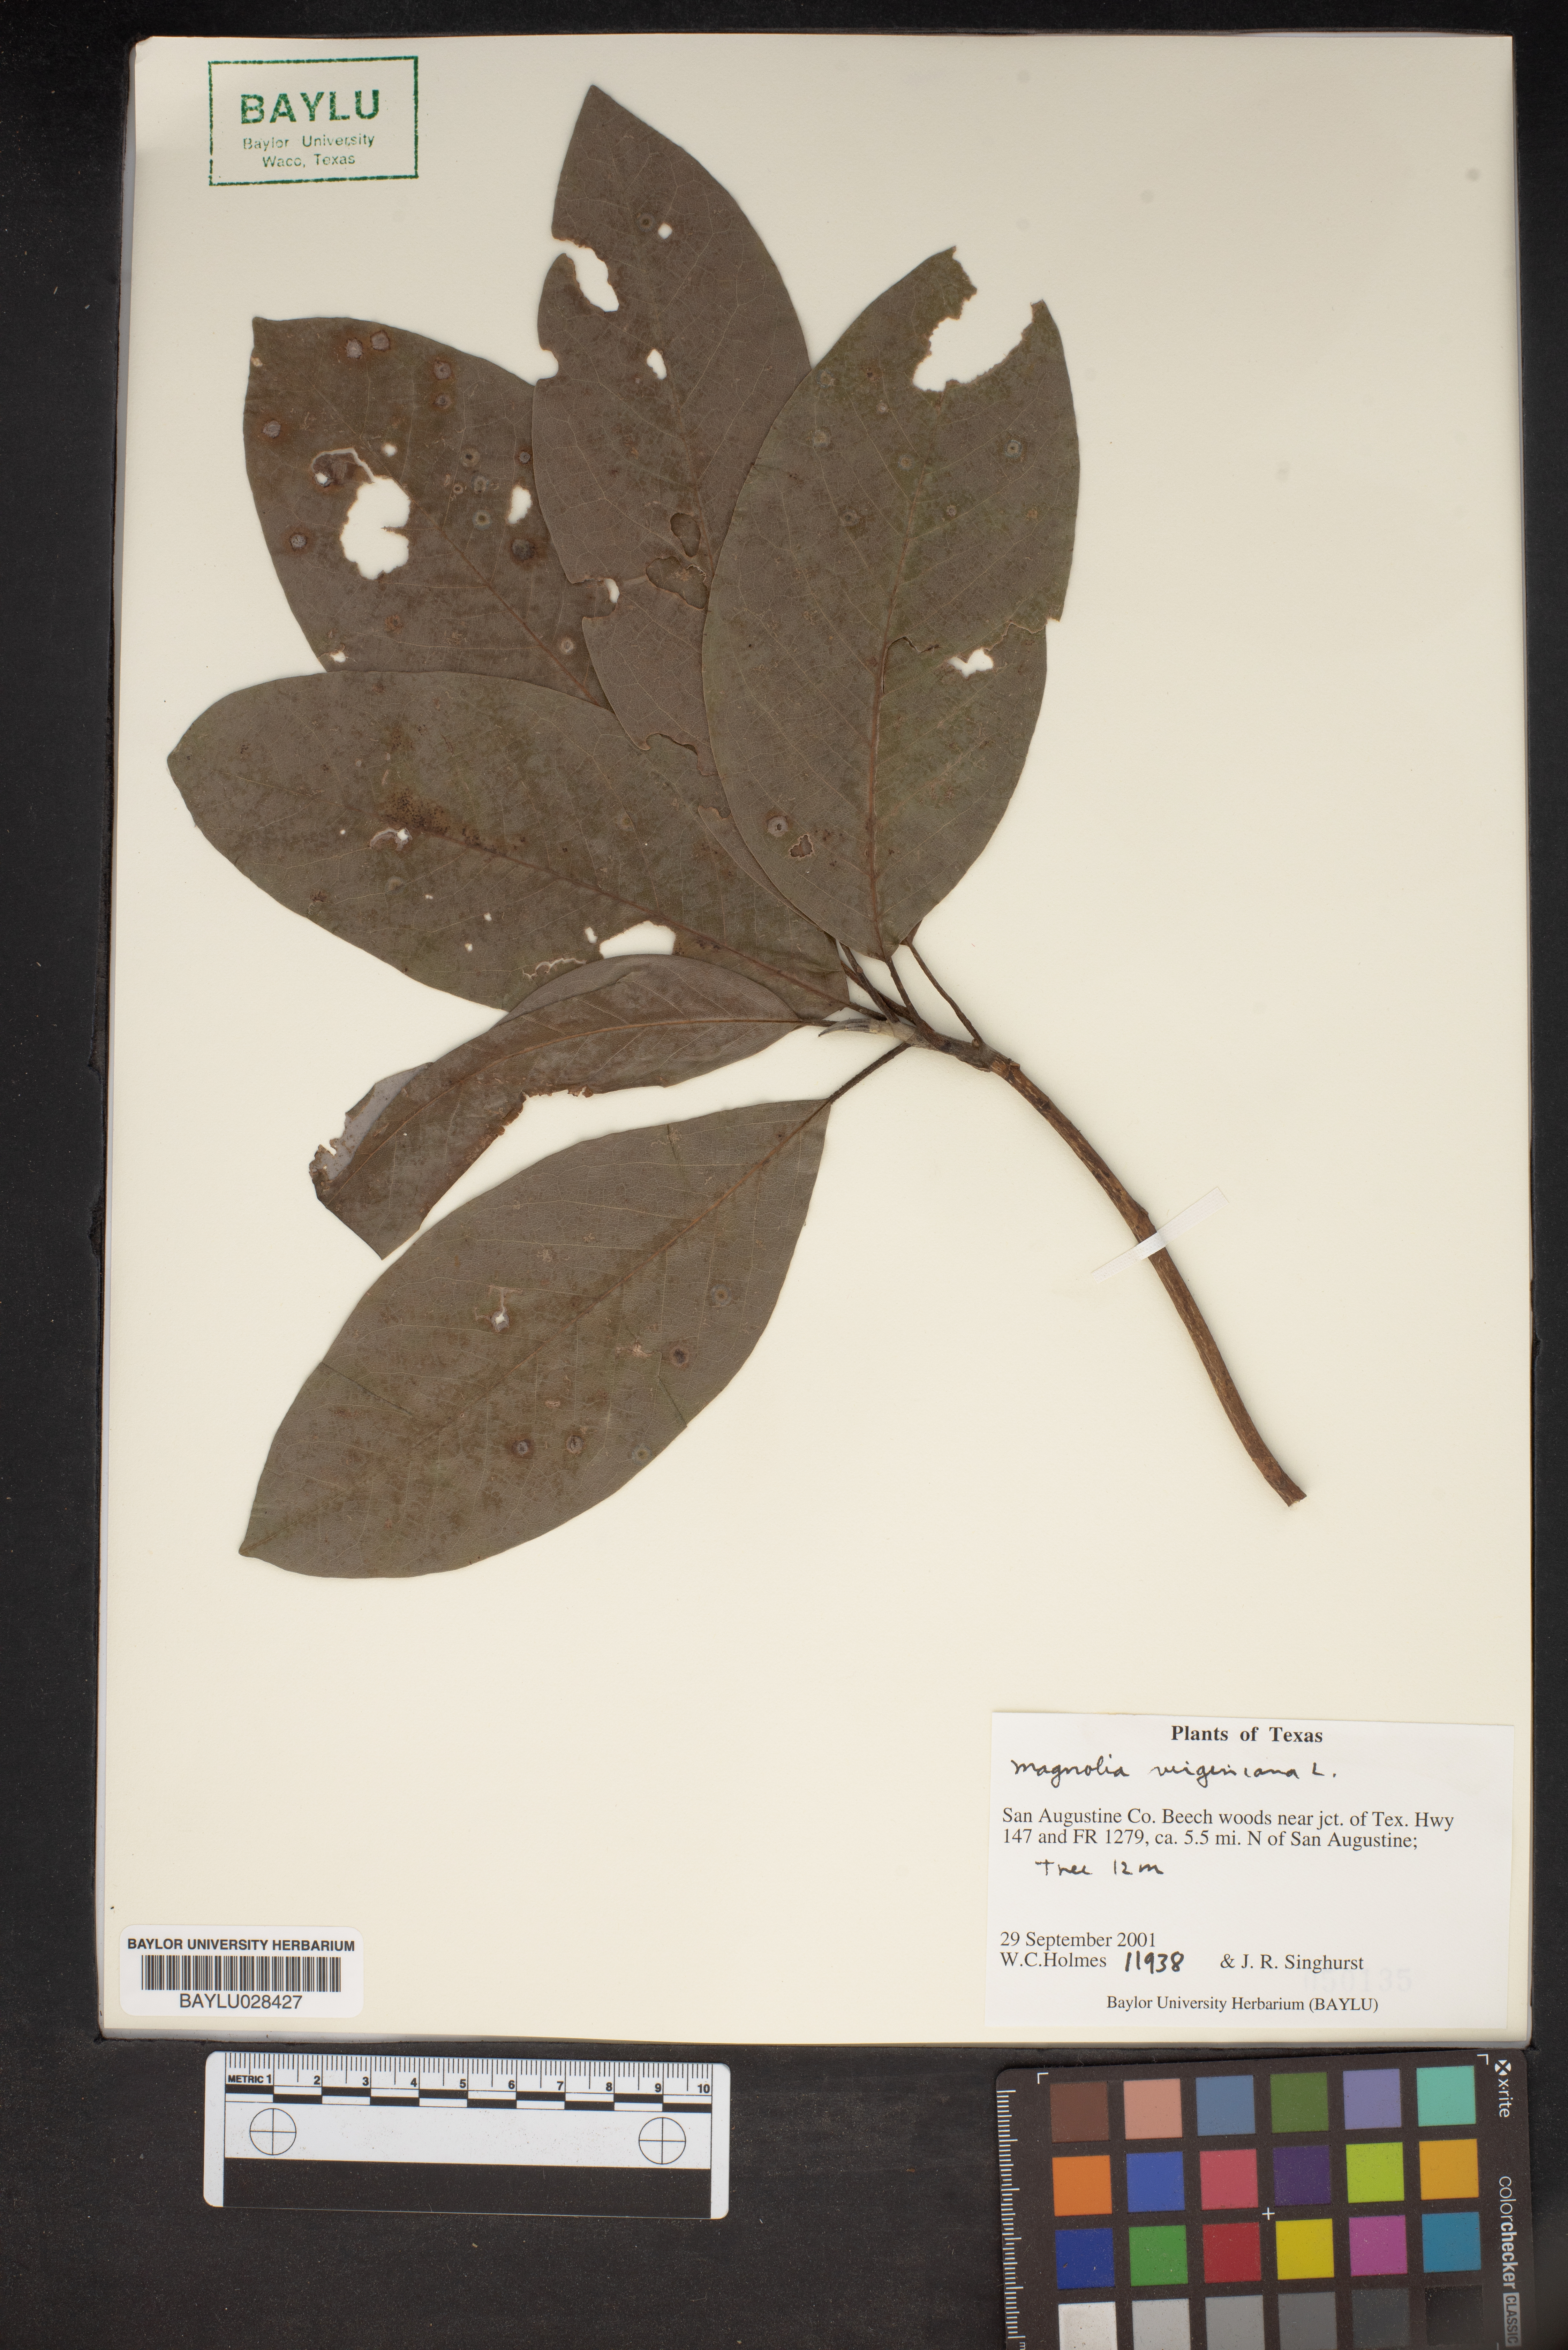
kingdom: Plantae
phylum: Tracheophyta
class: Magnoliopsida
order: Magnoliales
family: Magnoliaceae
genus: Magnolia
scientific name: Magnolia virginiana
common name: Swamp bay
